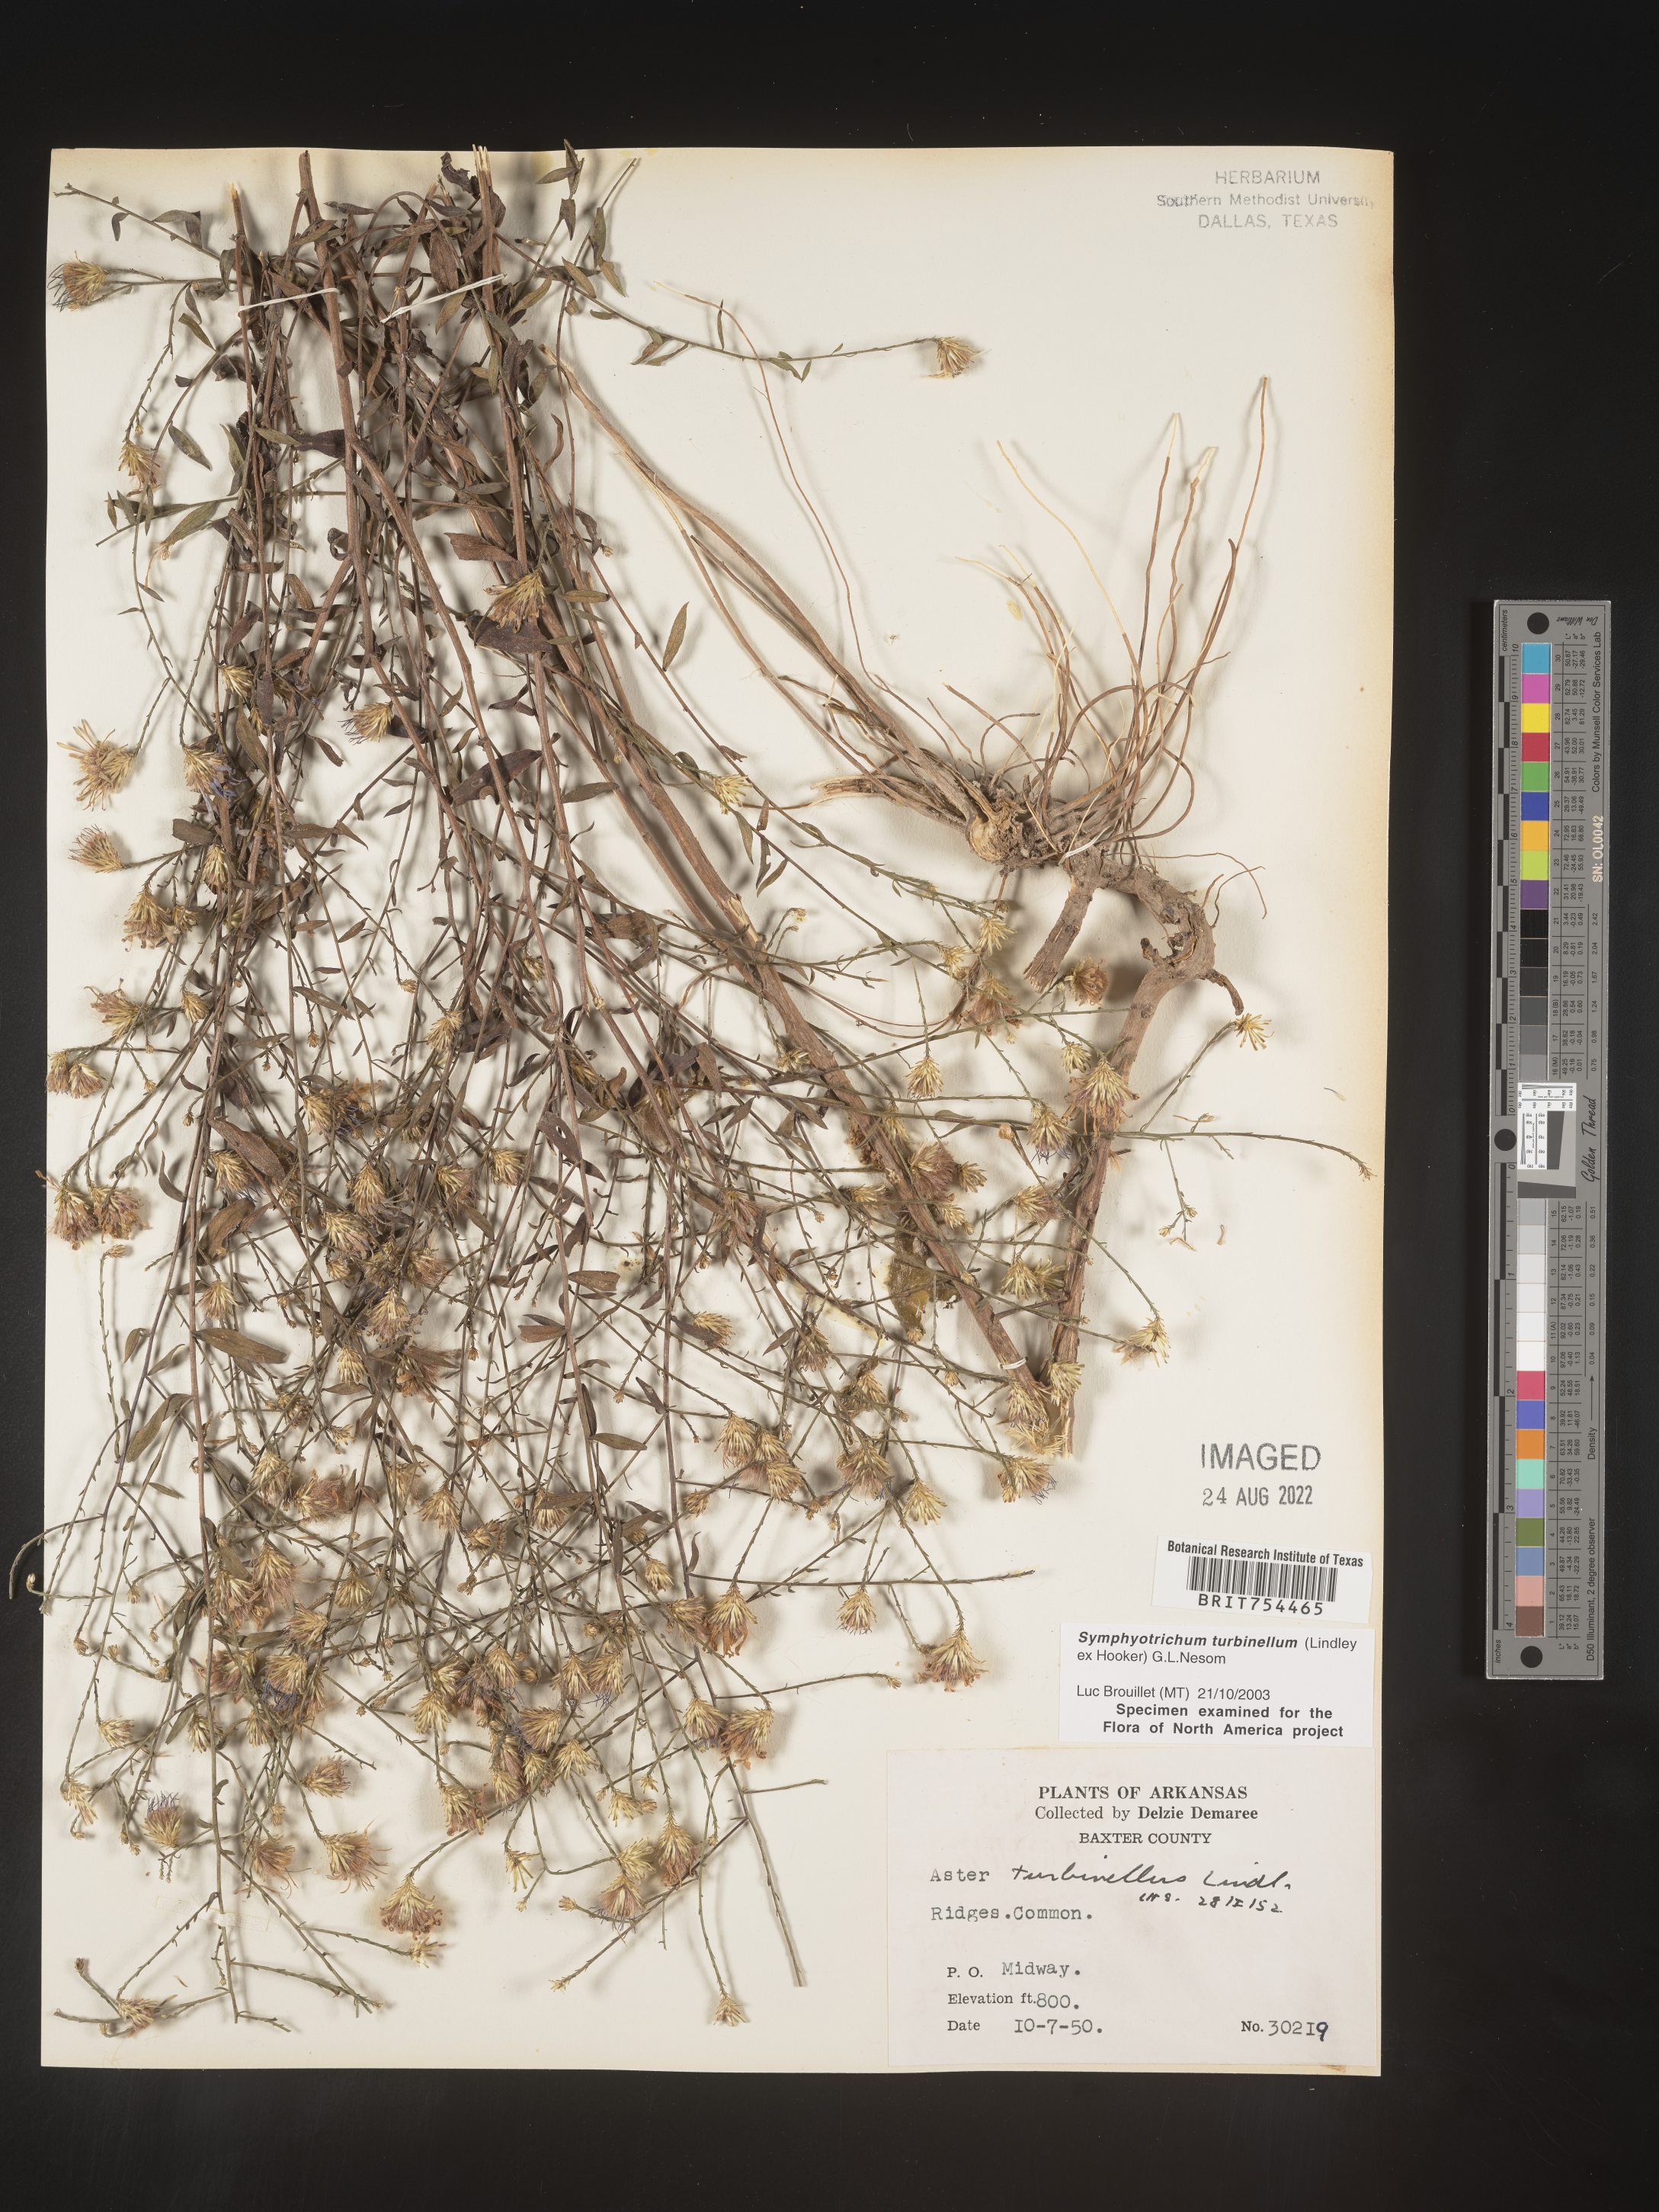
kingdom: Plantae
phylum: Tracheophyta
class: Magnoliopsida
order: Asterales
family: Asteraceae
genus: Symphyotrichum
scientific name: Symphyotrichum turbinellum
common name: Prairie aster
